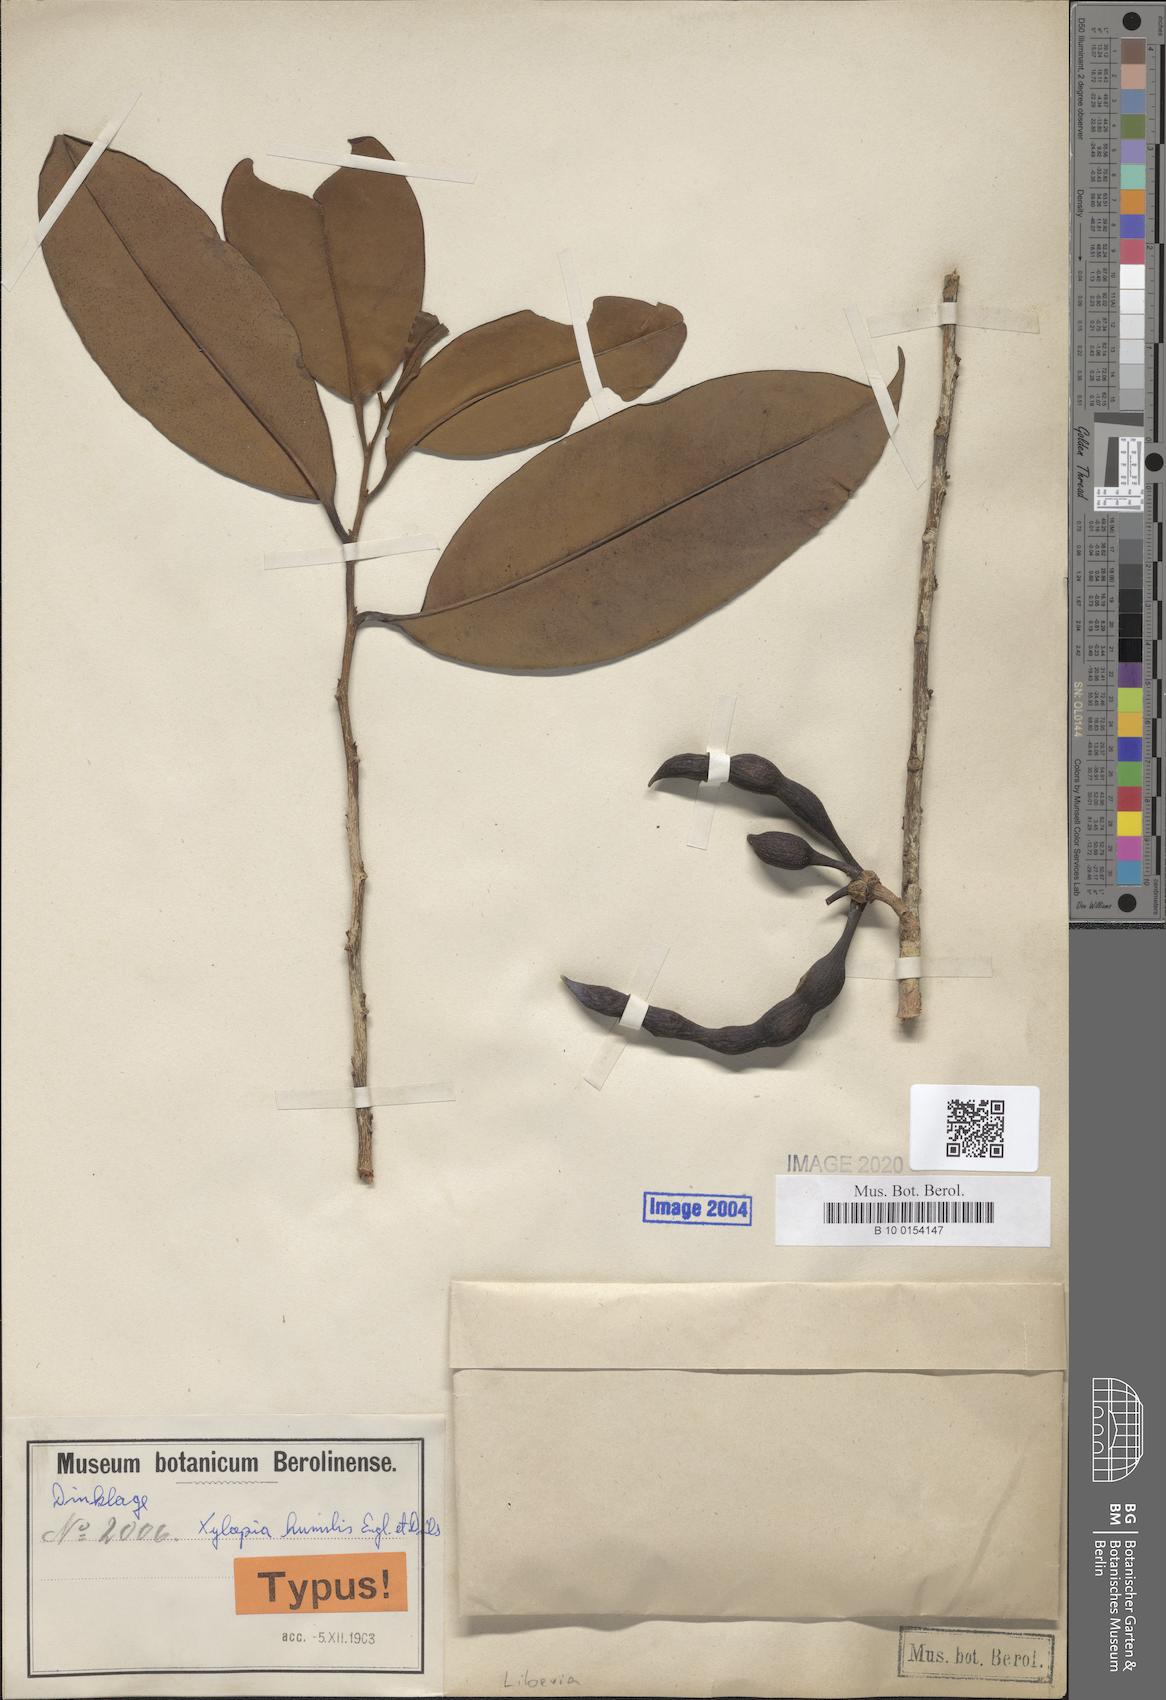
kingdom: Plantae
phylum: Tracheophyta
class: Magnoliopsida
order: Magnoliales
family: Annonaceae
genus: Xylopia
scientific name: Xylopia rubescens
